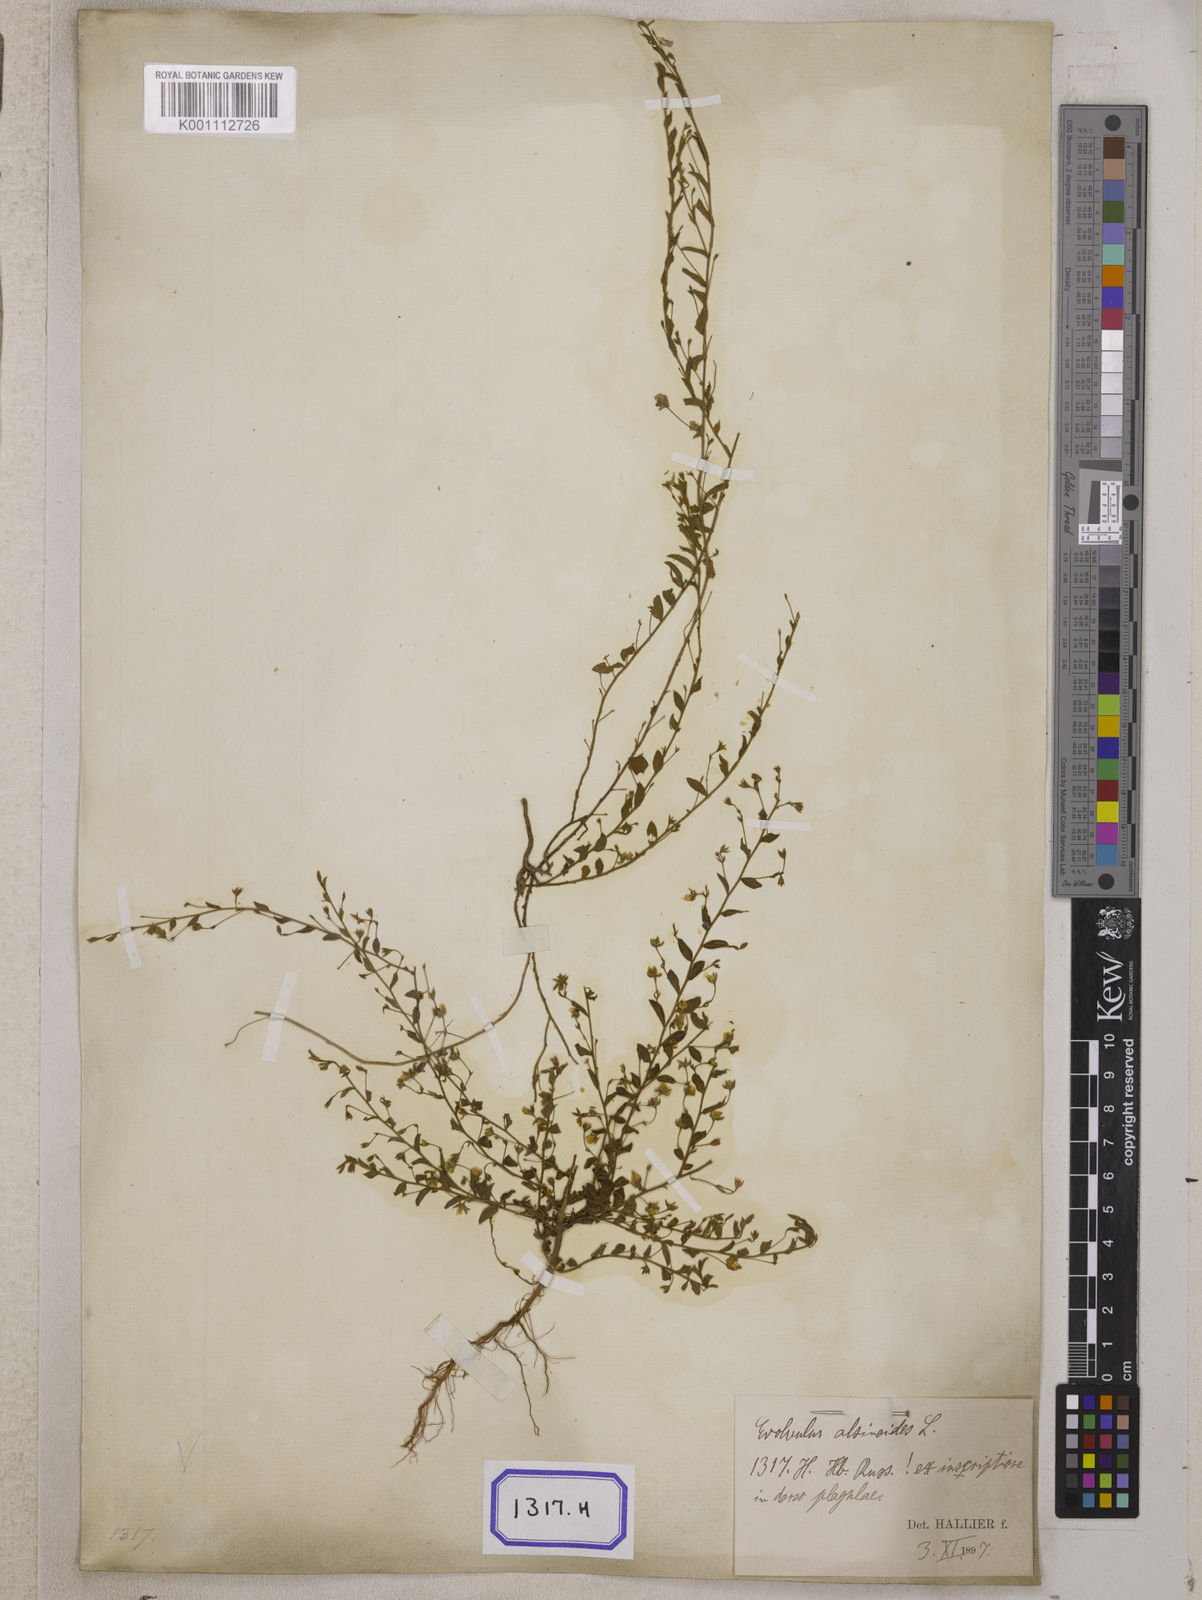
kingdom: Plantae
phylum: Tracheophyta
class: Magnoliopsida
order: Solanales
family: Convolvulaceae
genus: Evolvulus
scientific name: Evolvulus alsinoides
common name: Slender dwarf morning-glory
